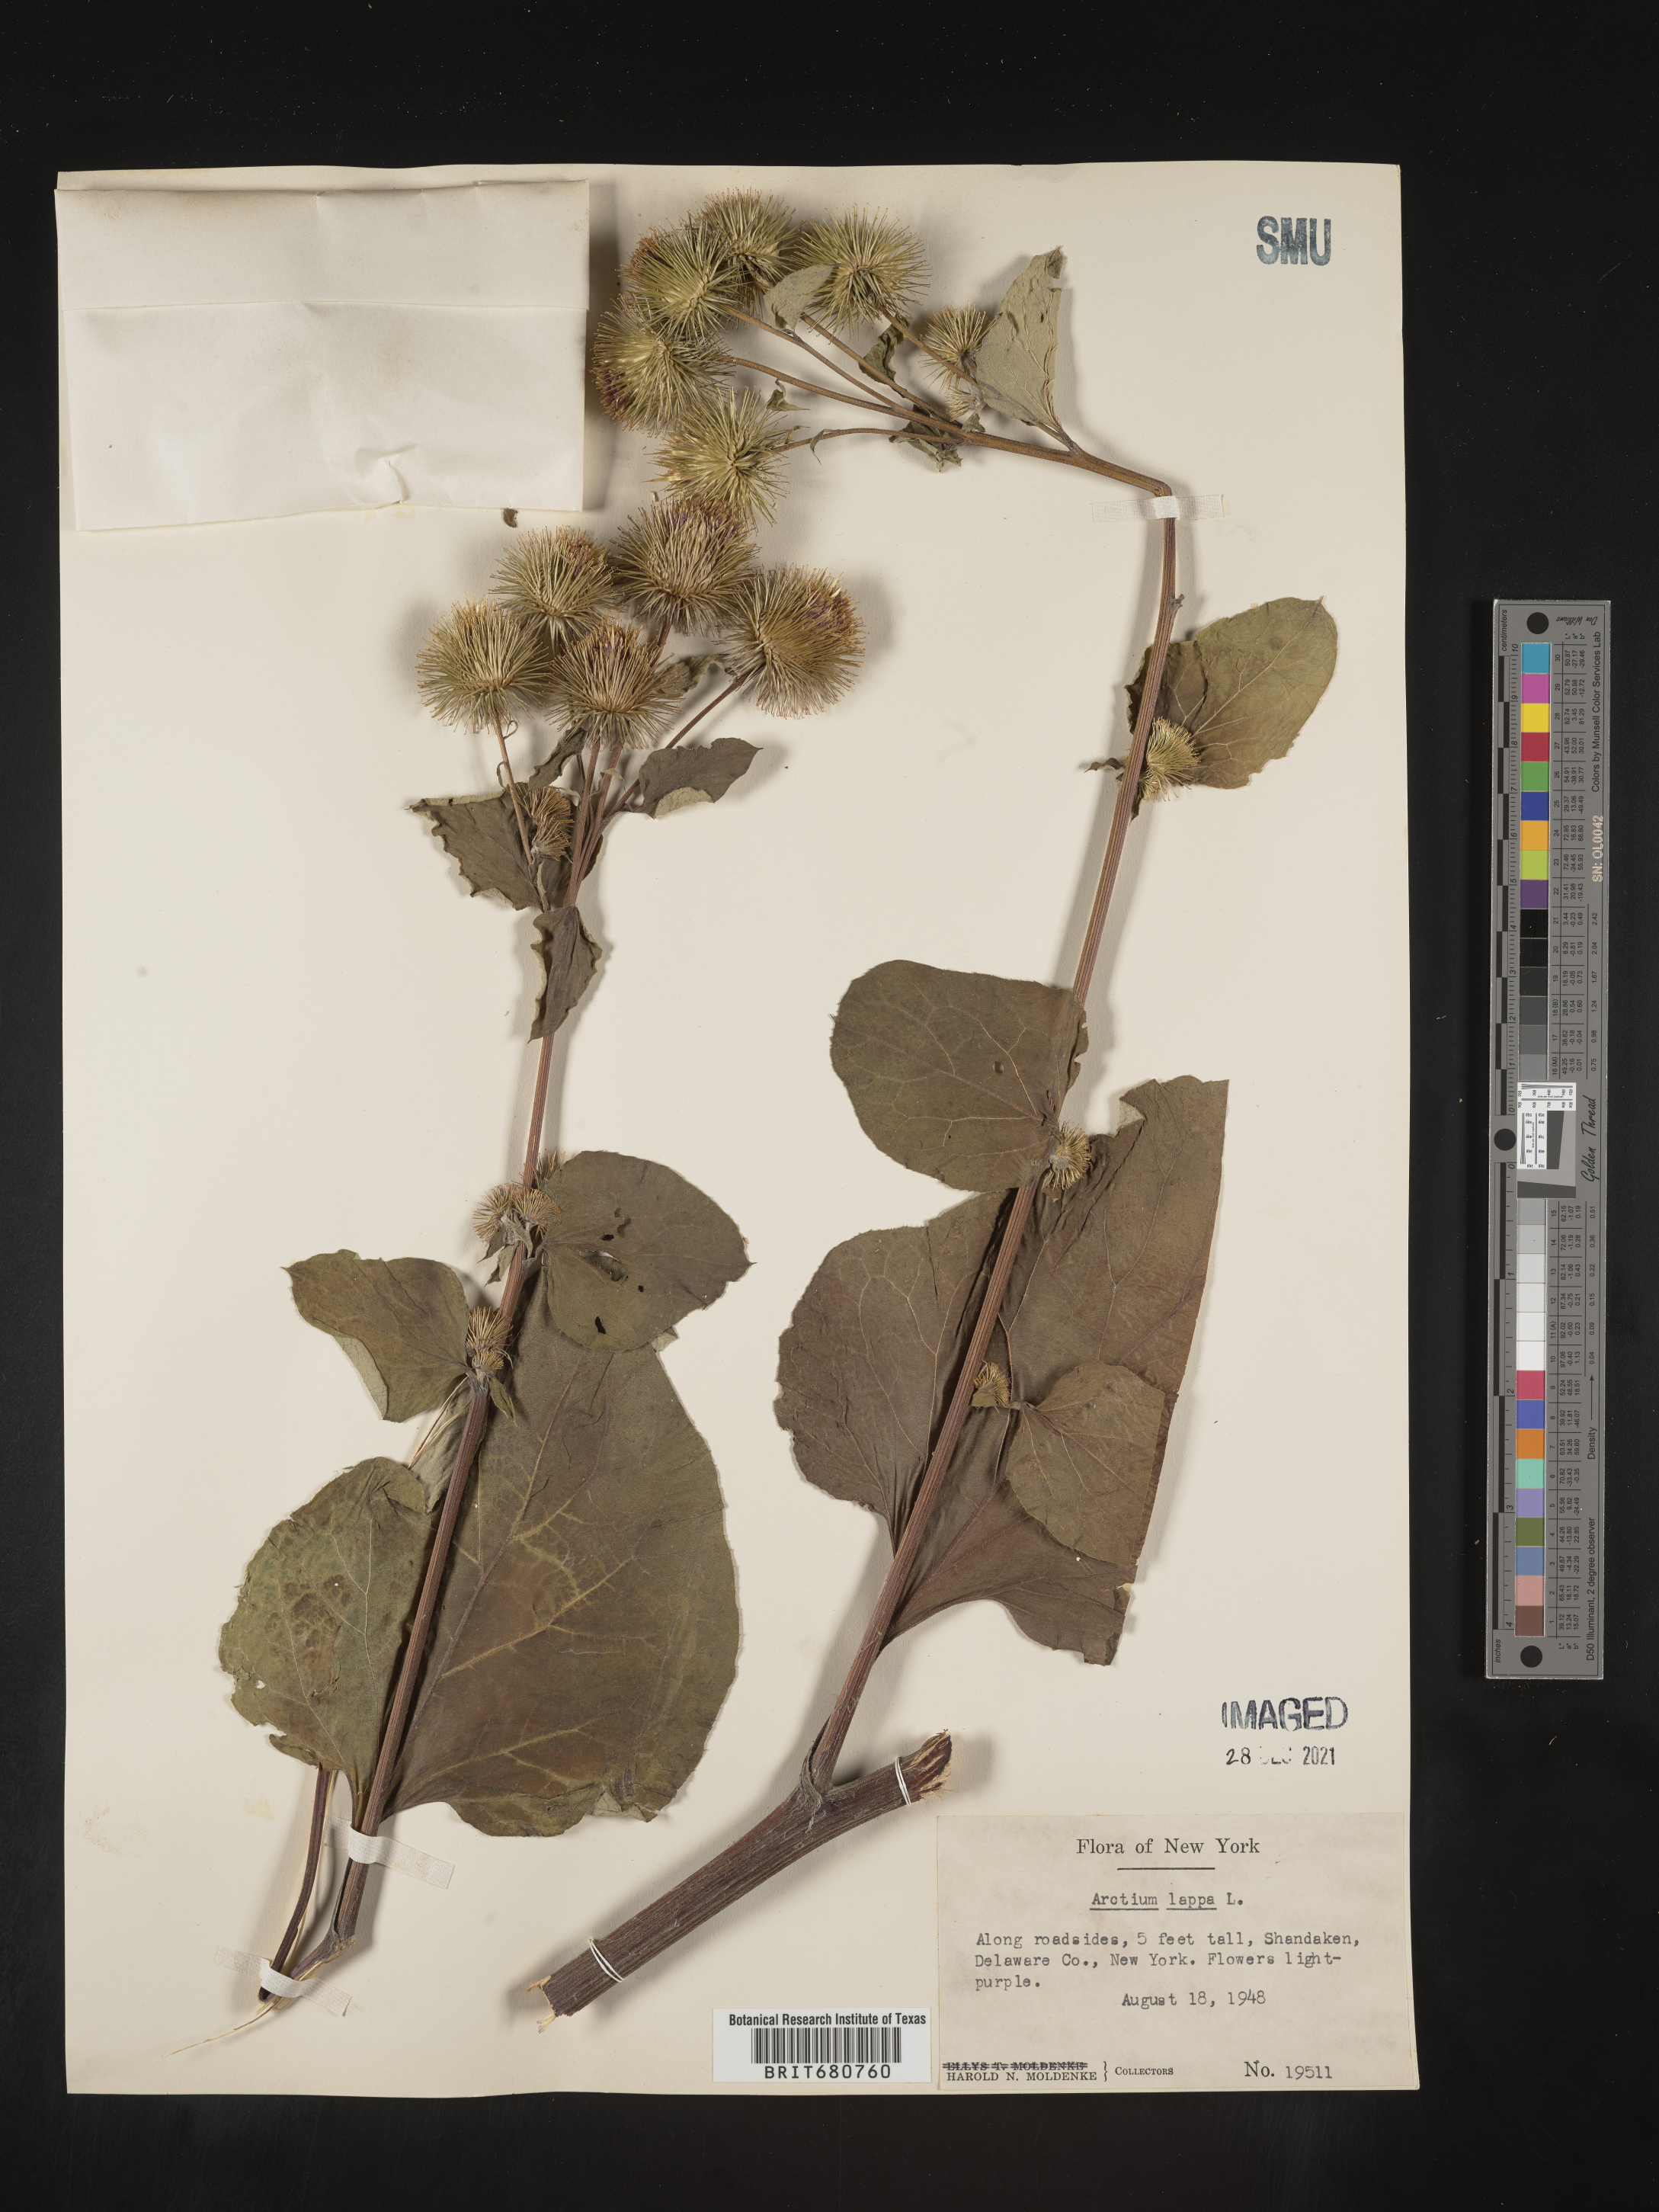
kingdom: Plantae
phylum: Tracheophyta
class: Magnoliopsida
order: Asterales
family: Asteraceae
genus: Arctium
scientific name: Arctium lappa
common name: Greater burdock
